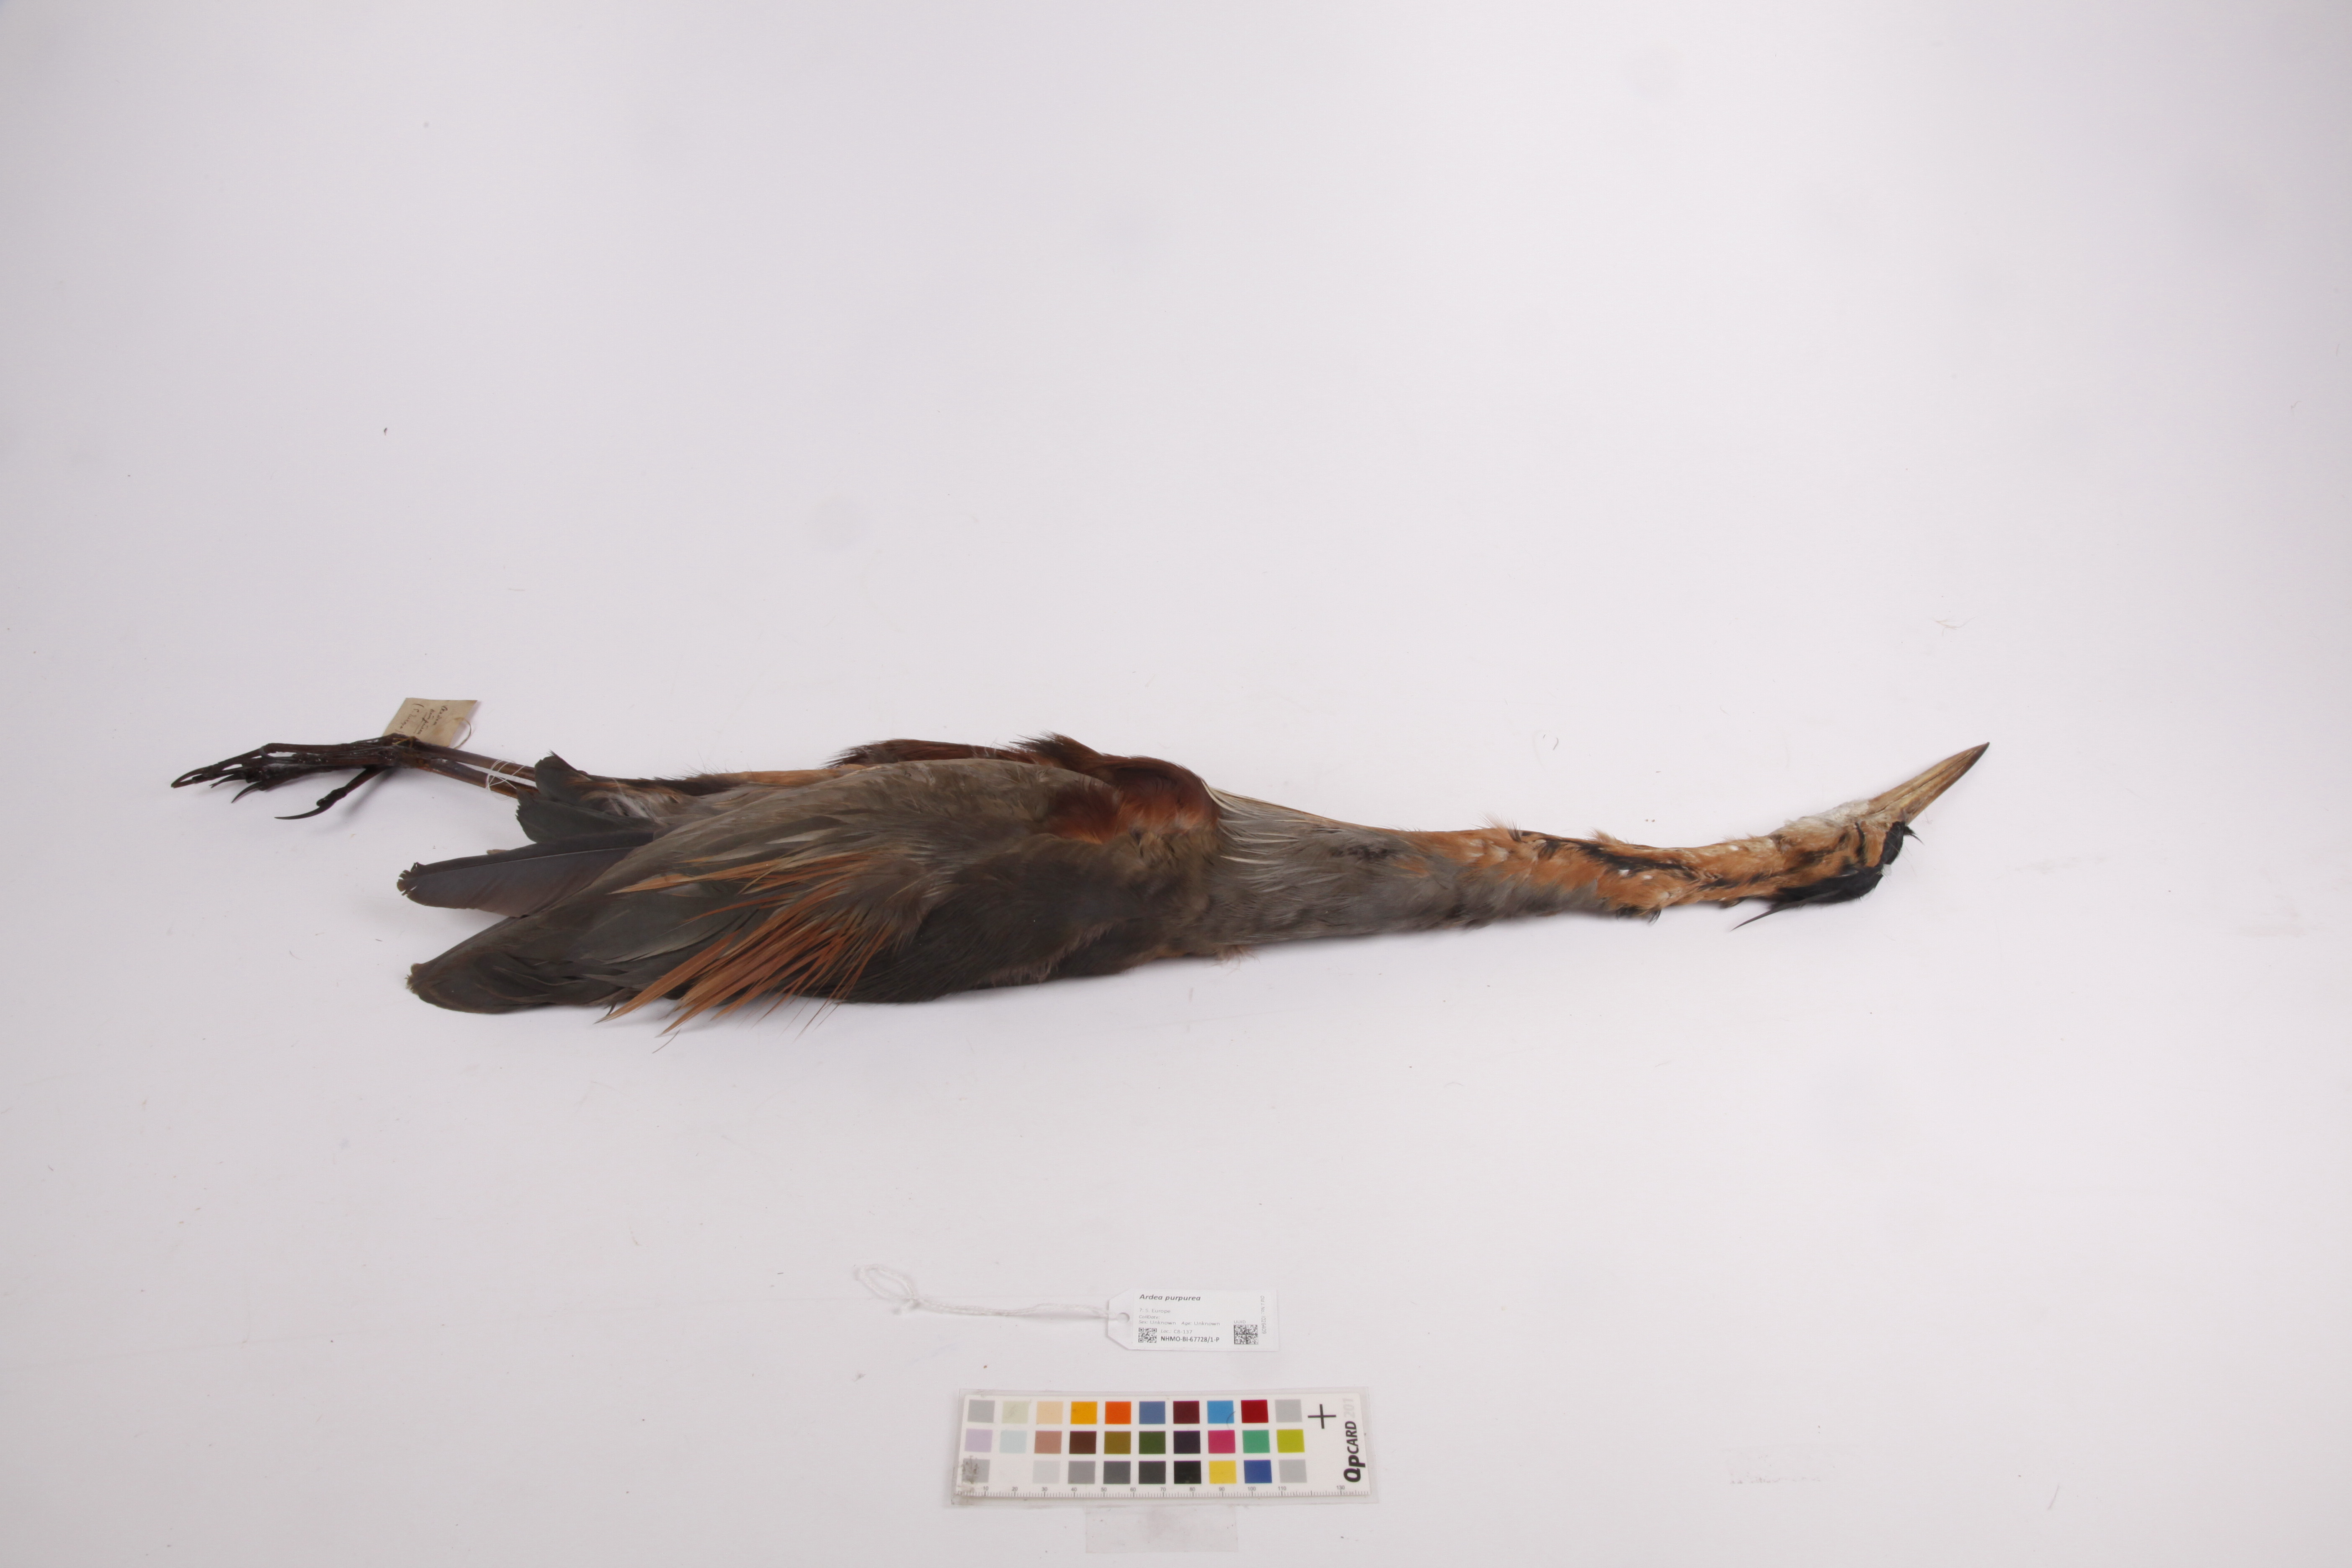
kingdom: Animalia
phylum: Chordata
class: Aves
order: Pelecaniformes
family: Ardeidae
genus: Ardea
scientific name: Ardea purpurea
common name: Purple heron
